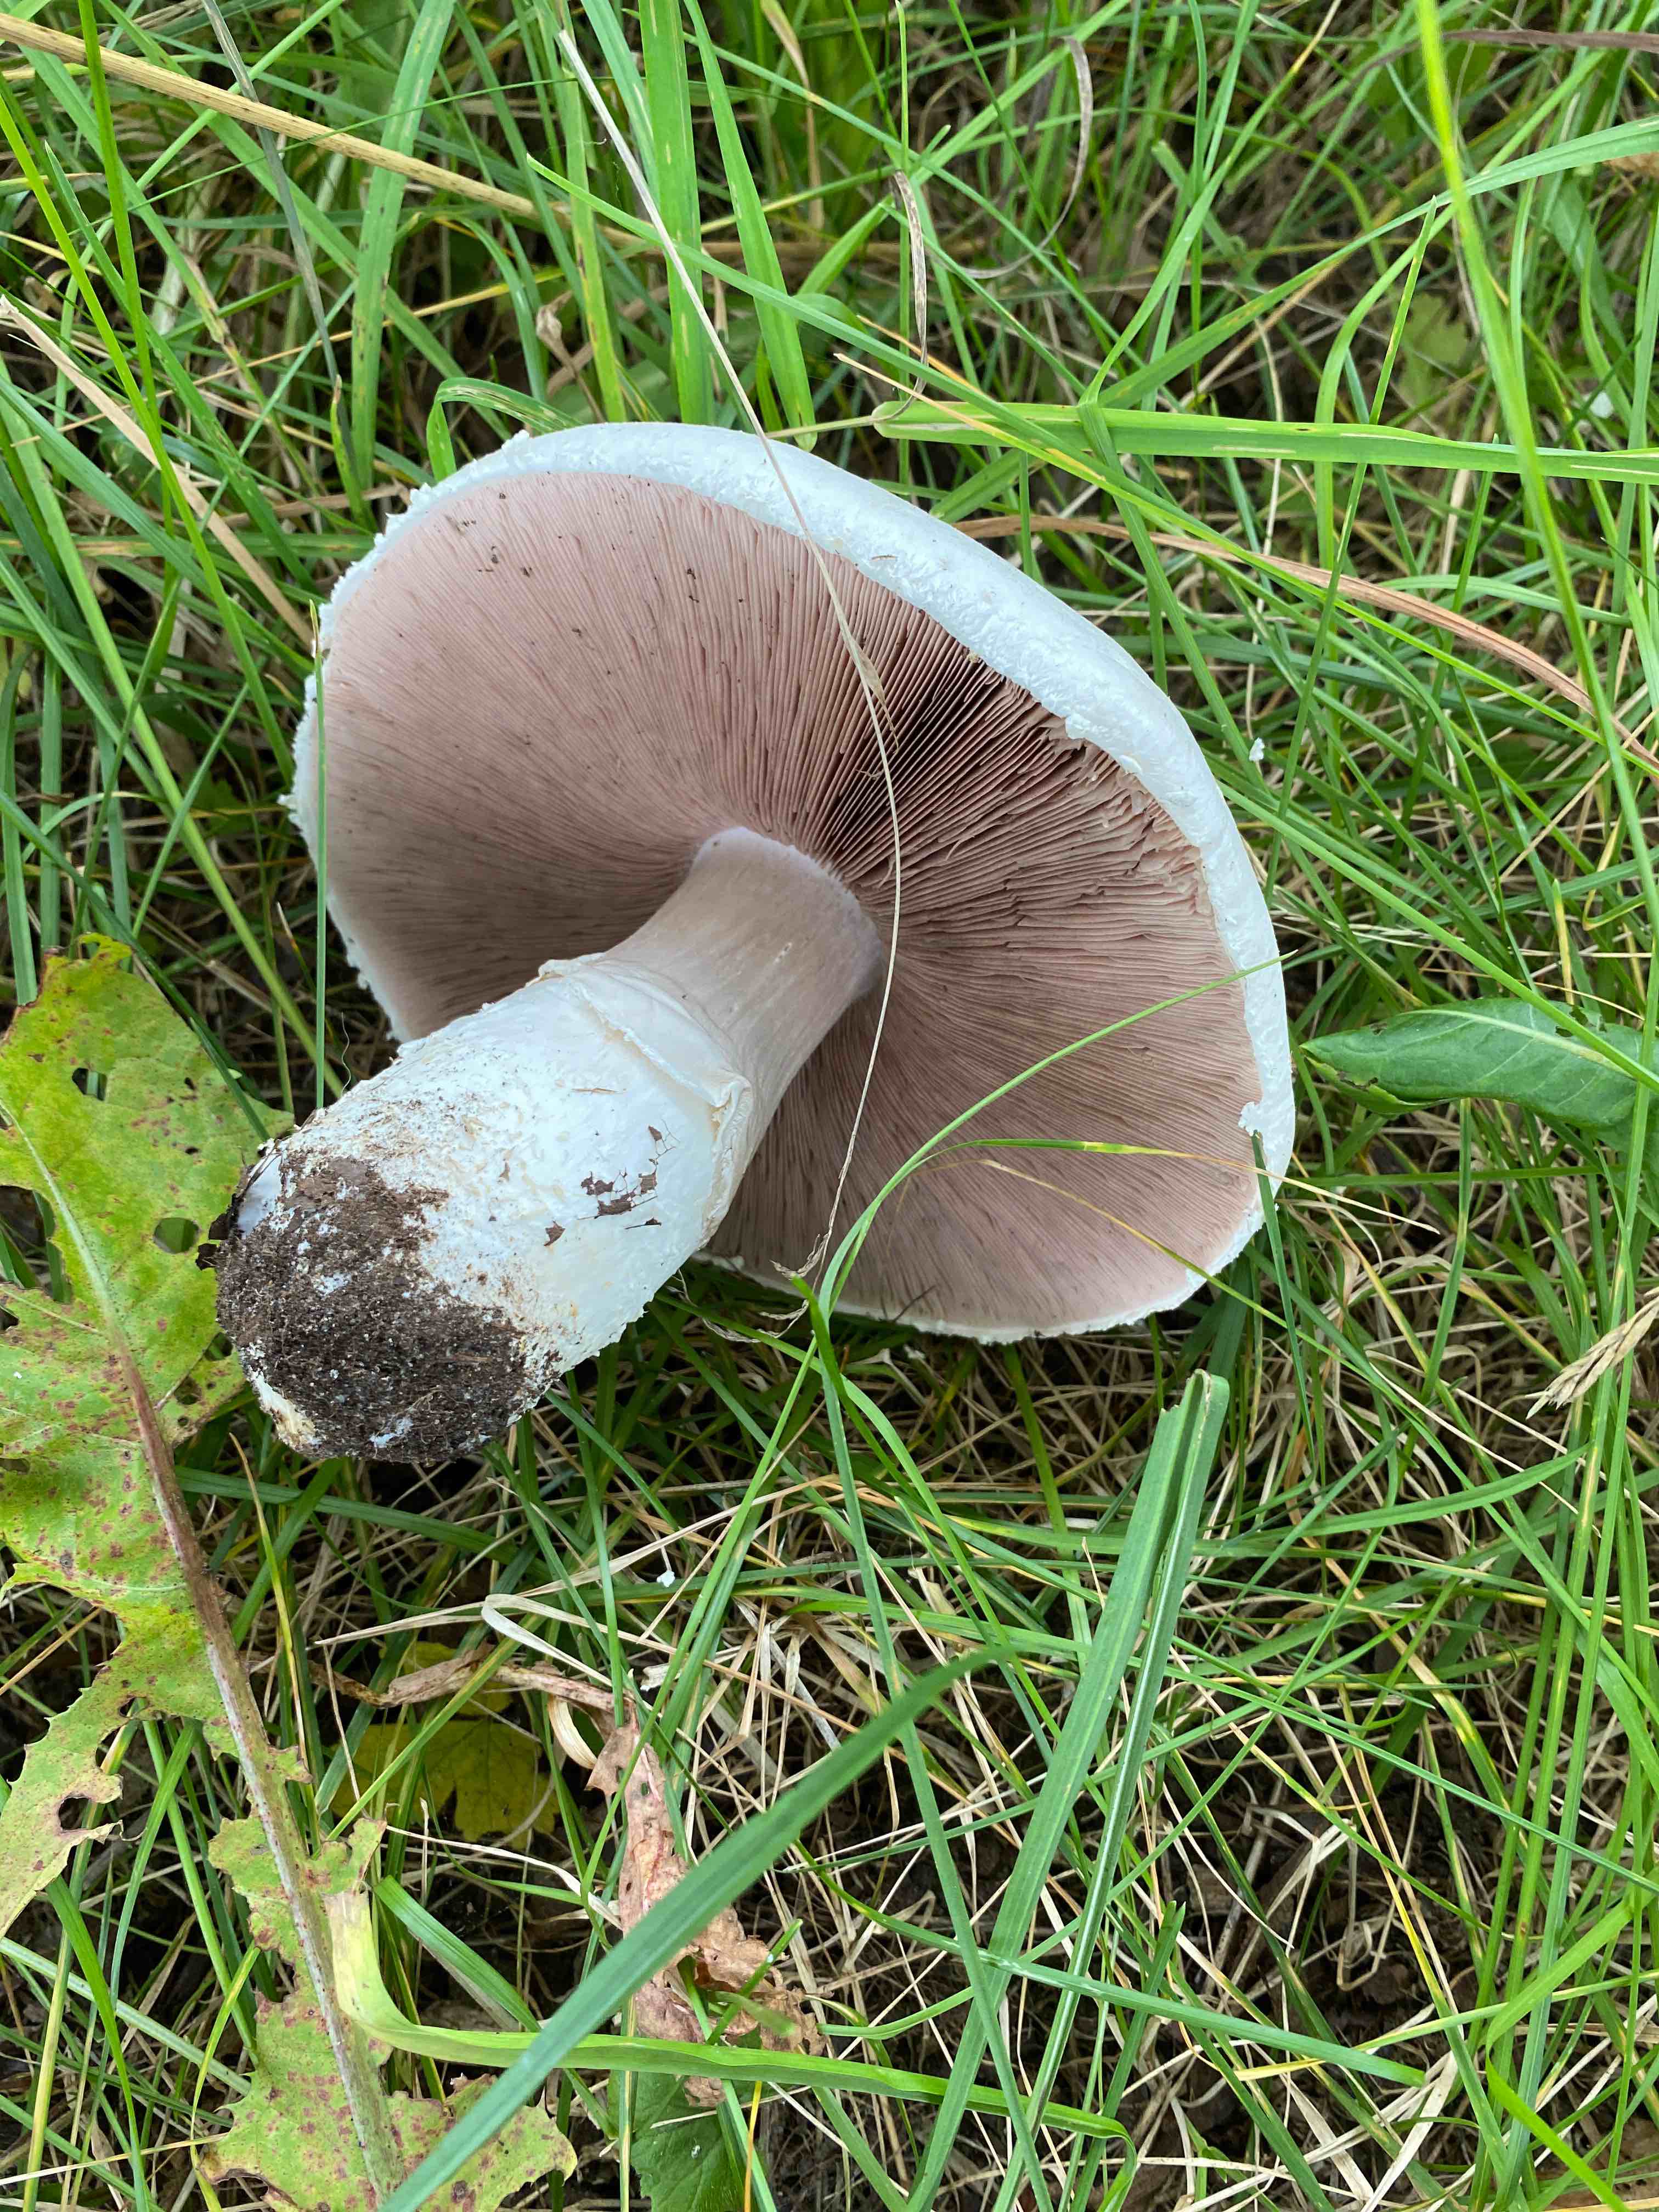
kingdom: Fungi
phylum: Basidiomycota
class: Agaricomycetes
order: Agaricales
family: Agaricaceae
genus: Agaricus
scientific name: Agaricus
